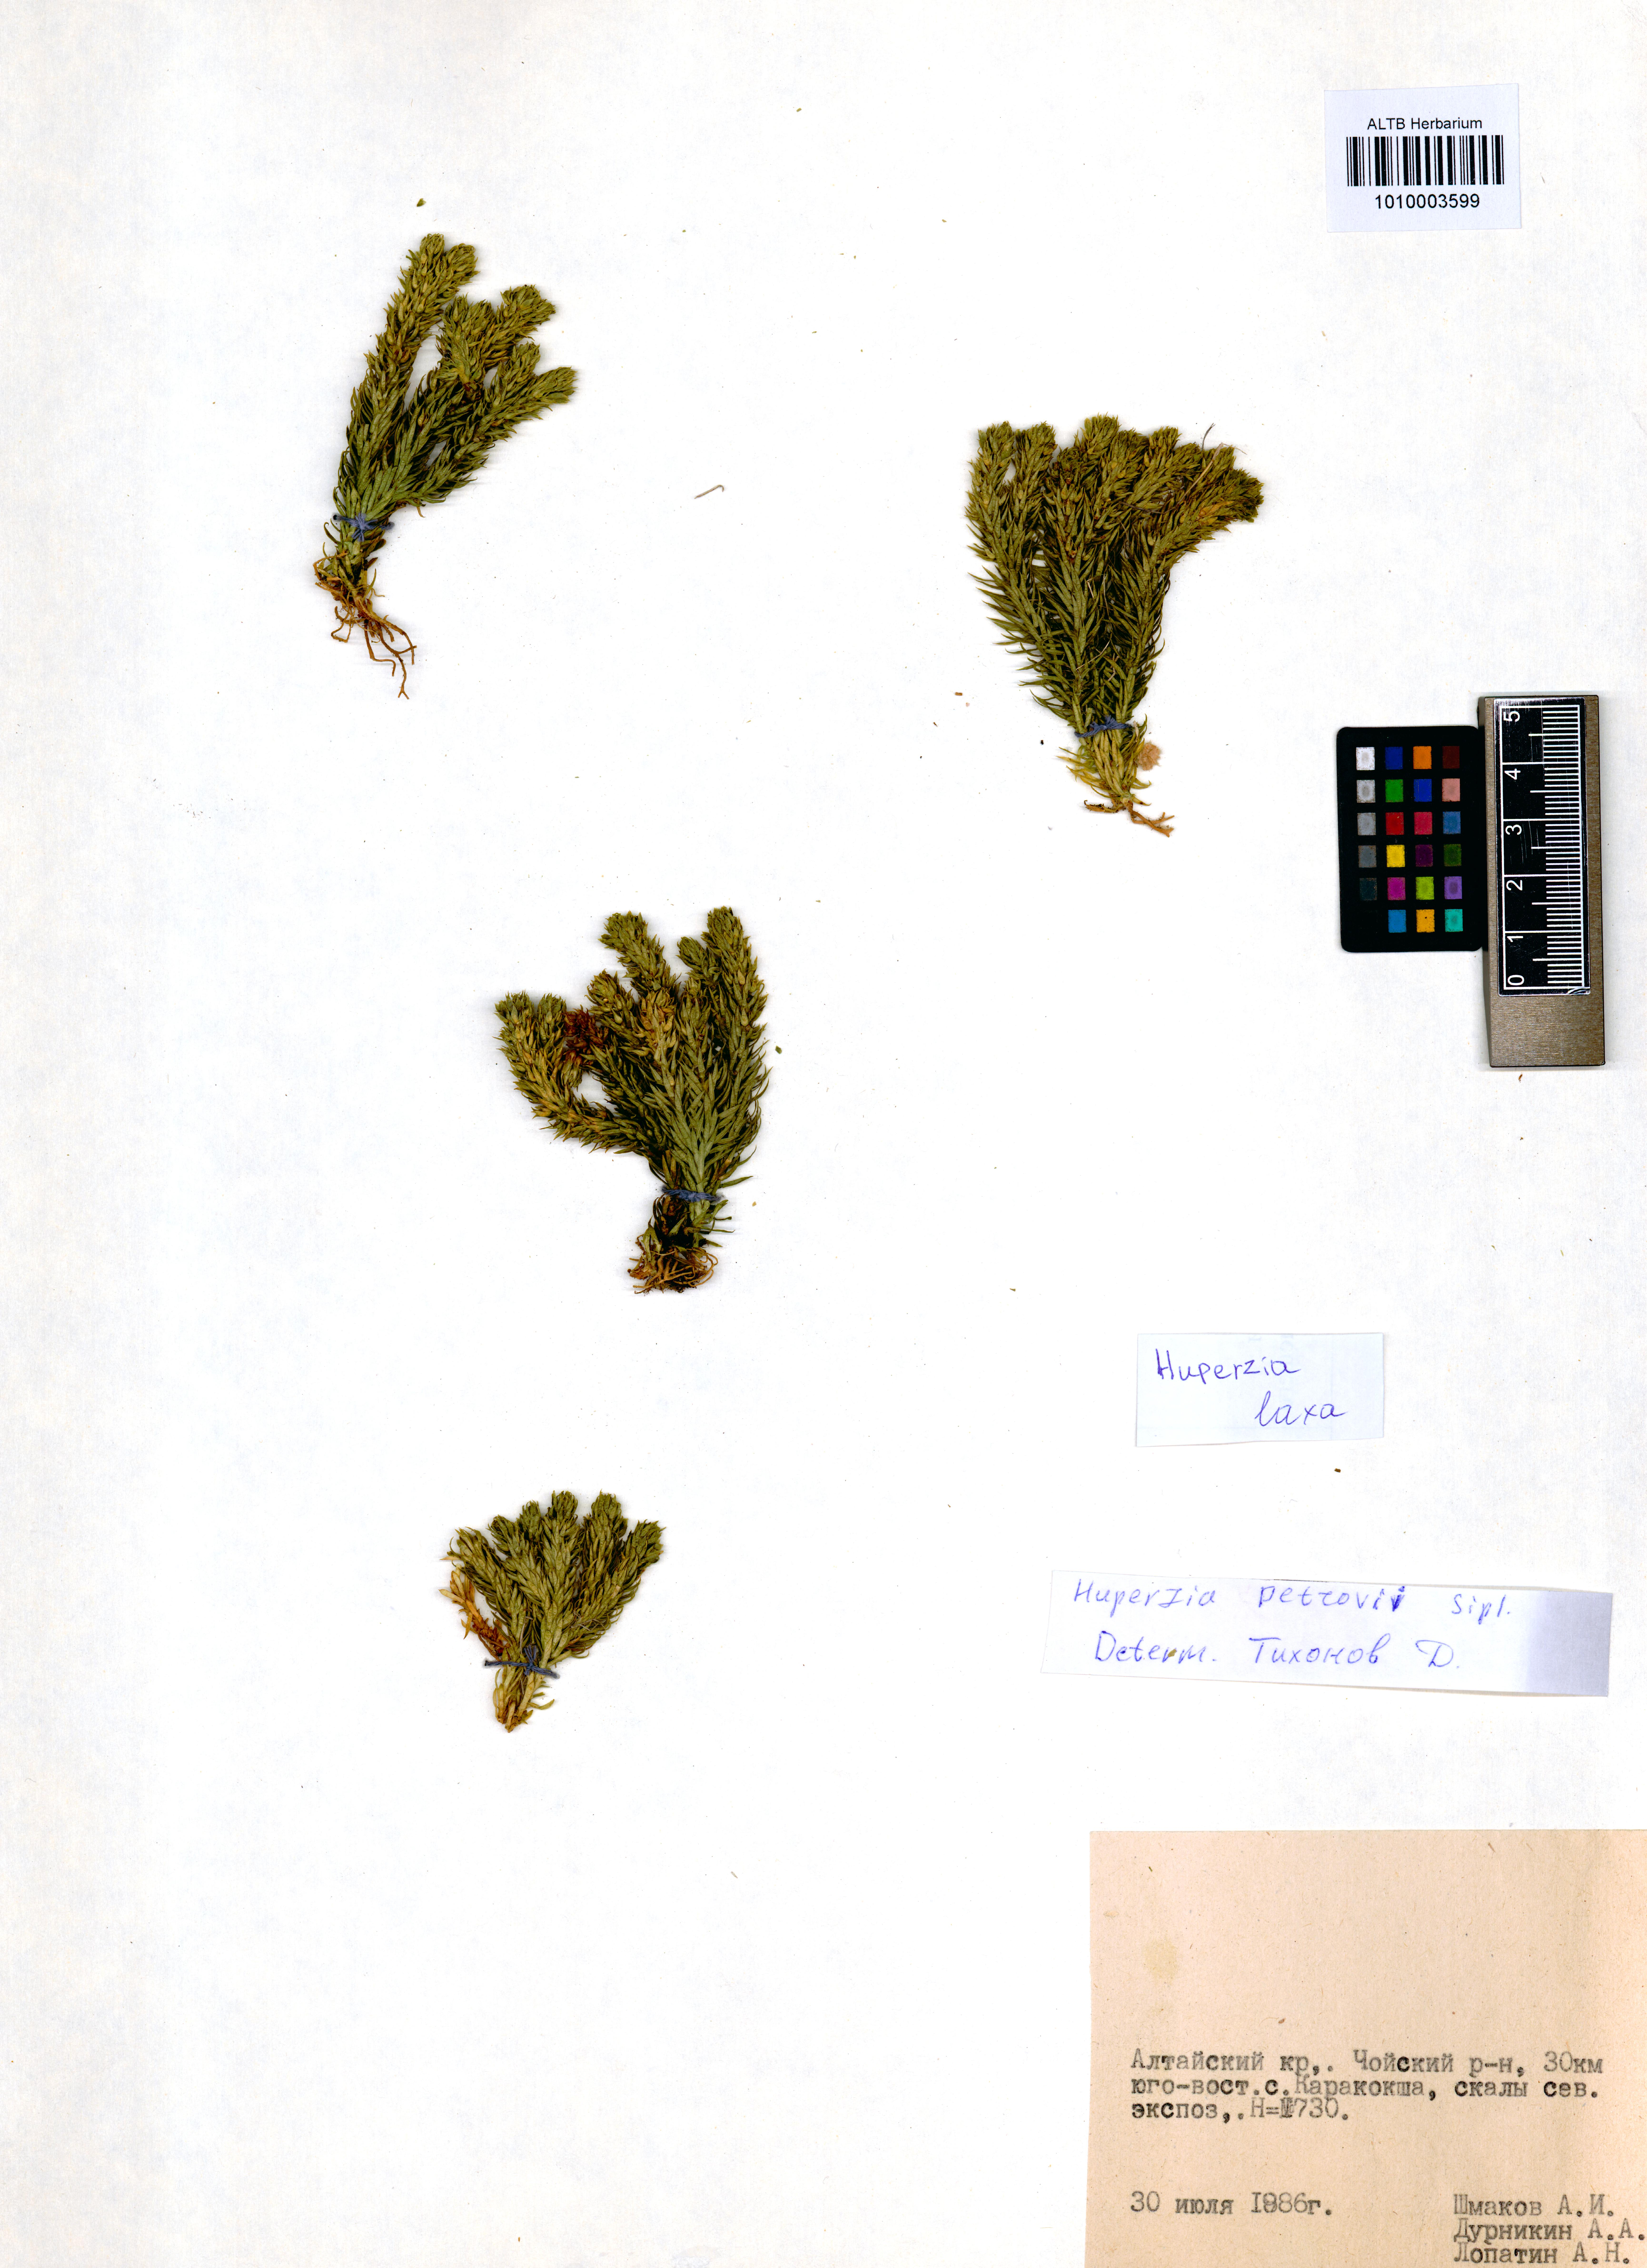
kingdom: Plantae
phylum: Tracheophyta
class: Lycopodiopsida
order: Lycopodiales
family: Lycopodiaceae
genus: Phlegmariurus
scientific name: Phlegmariurus carinatus
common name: Keeled tassel-fern
